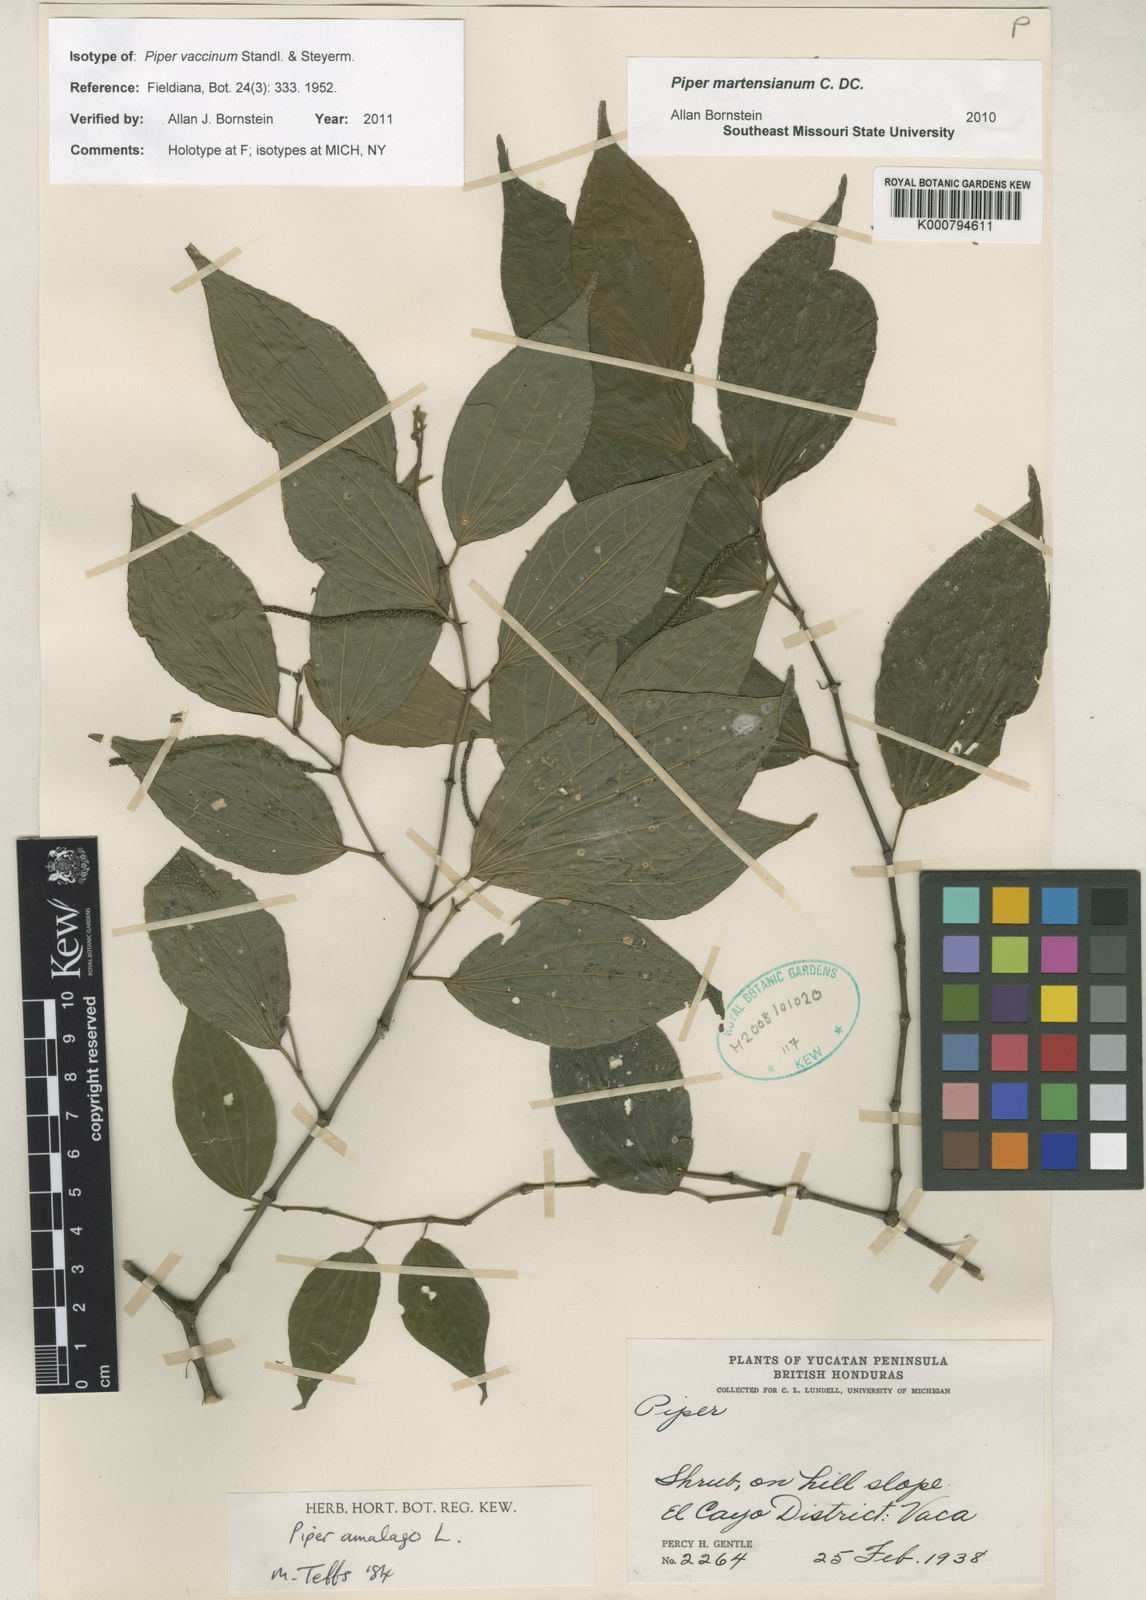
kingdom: Plantae
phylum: Tracheophyta
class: Magnoliopsida
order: Piperales
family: Piperaceae
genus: Piper
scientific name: Piper martensianum
